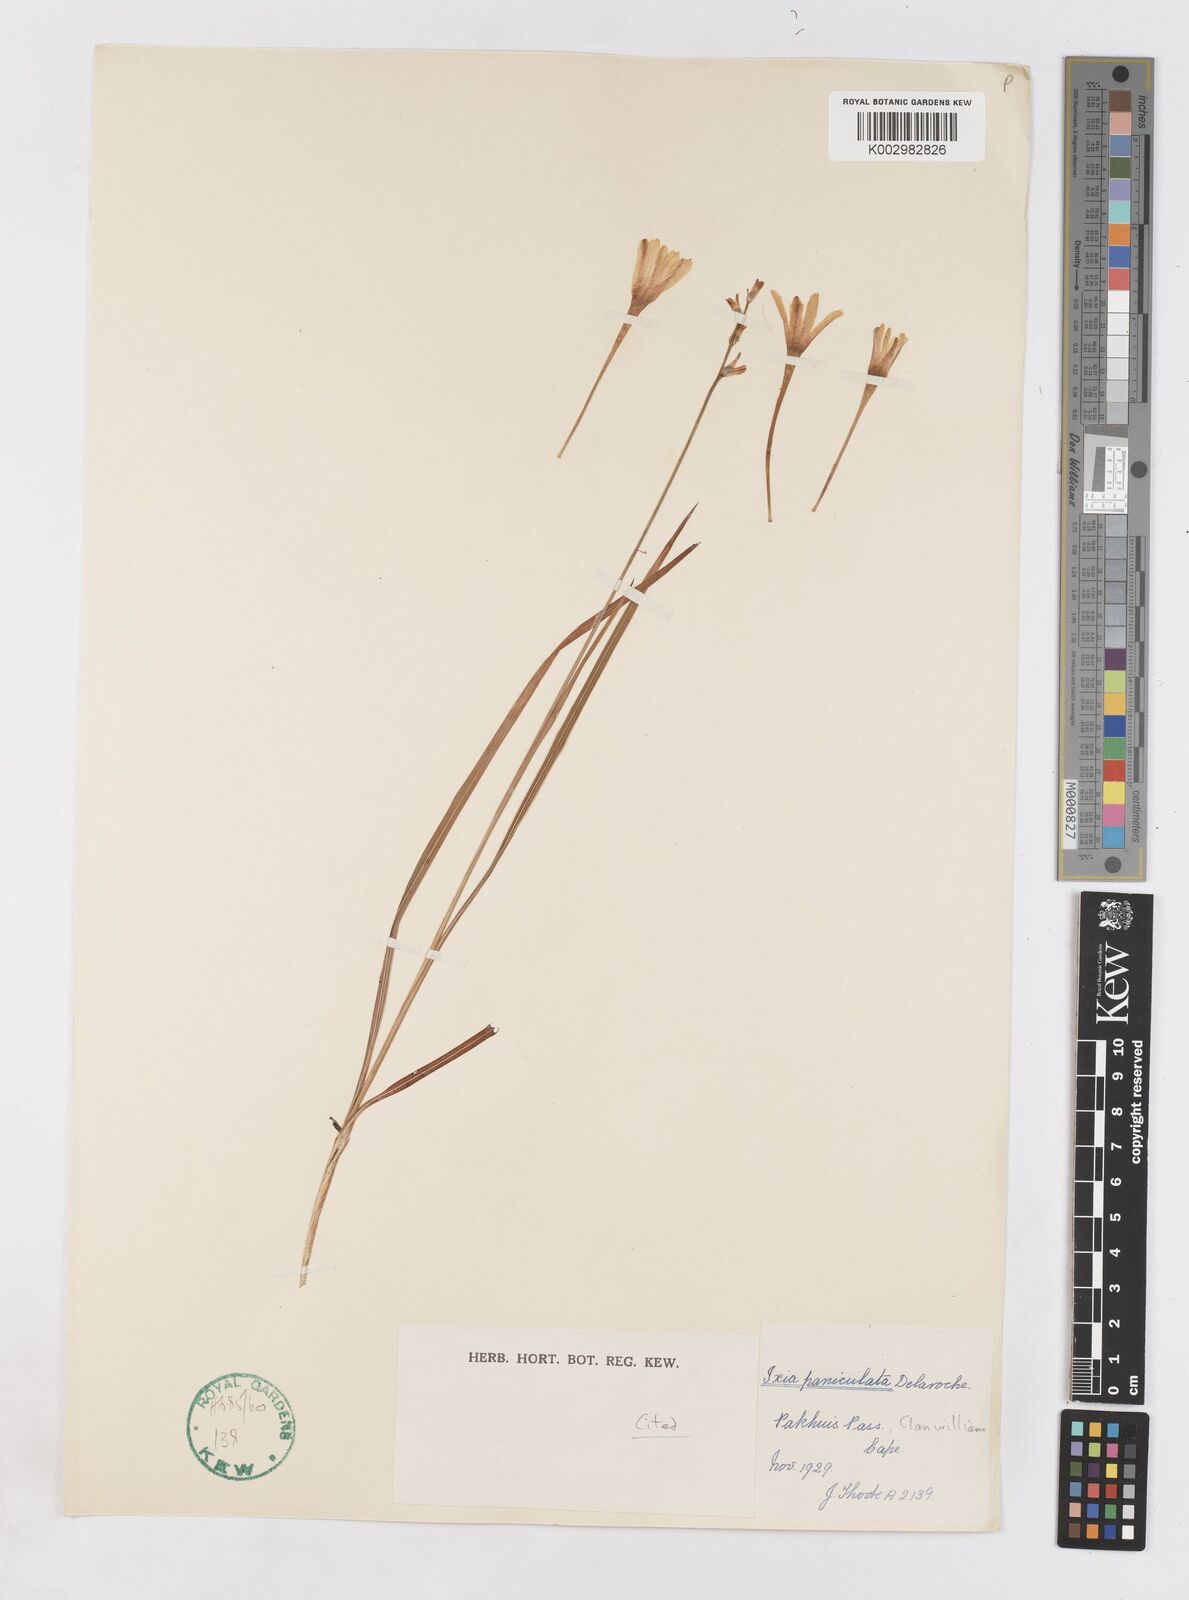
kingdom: Plantae
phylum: Tracheophyta
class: Liliopsida
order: Asparagales
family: Iridaceae
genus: Ixia
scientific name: Ixia paniculata
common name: Tubular corn-lily
